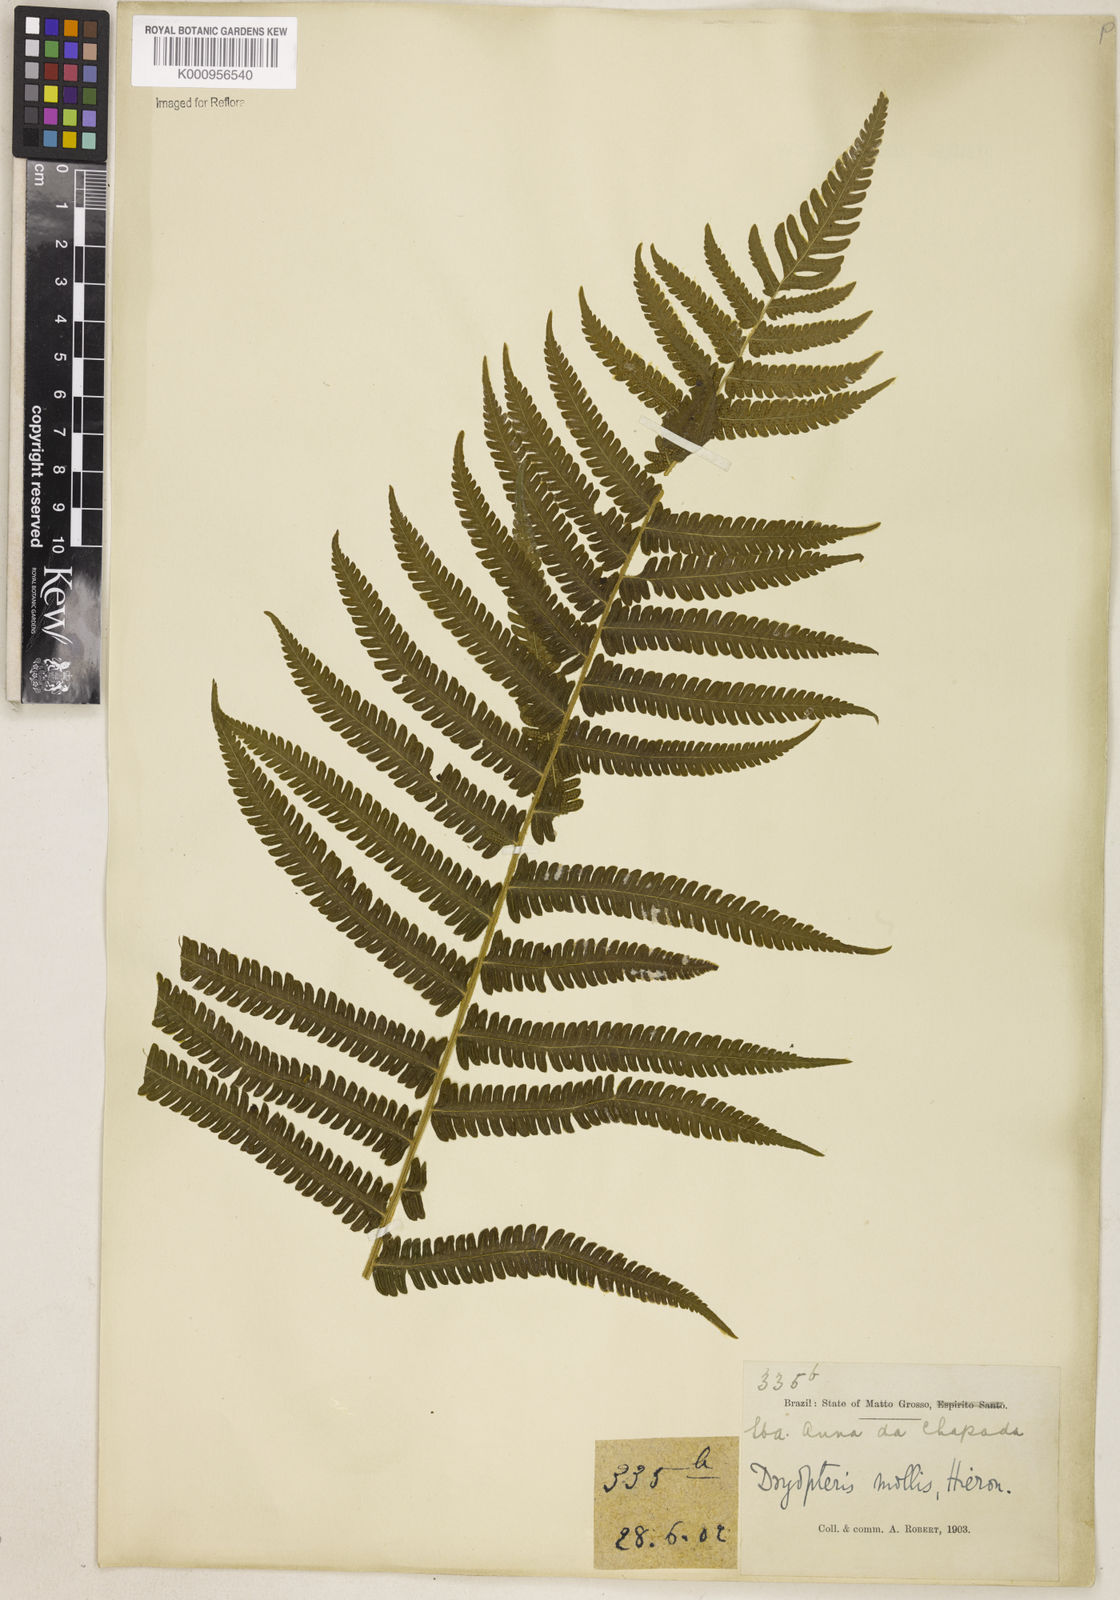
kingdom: Plantae
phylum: Tracheophyta
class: Polypodiopsida
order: Polypodiales
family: Thelypteridaceae
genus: Christella
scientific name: Christella hispidula
